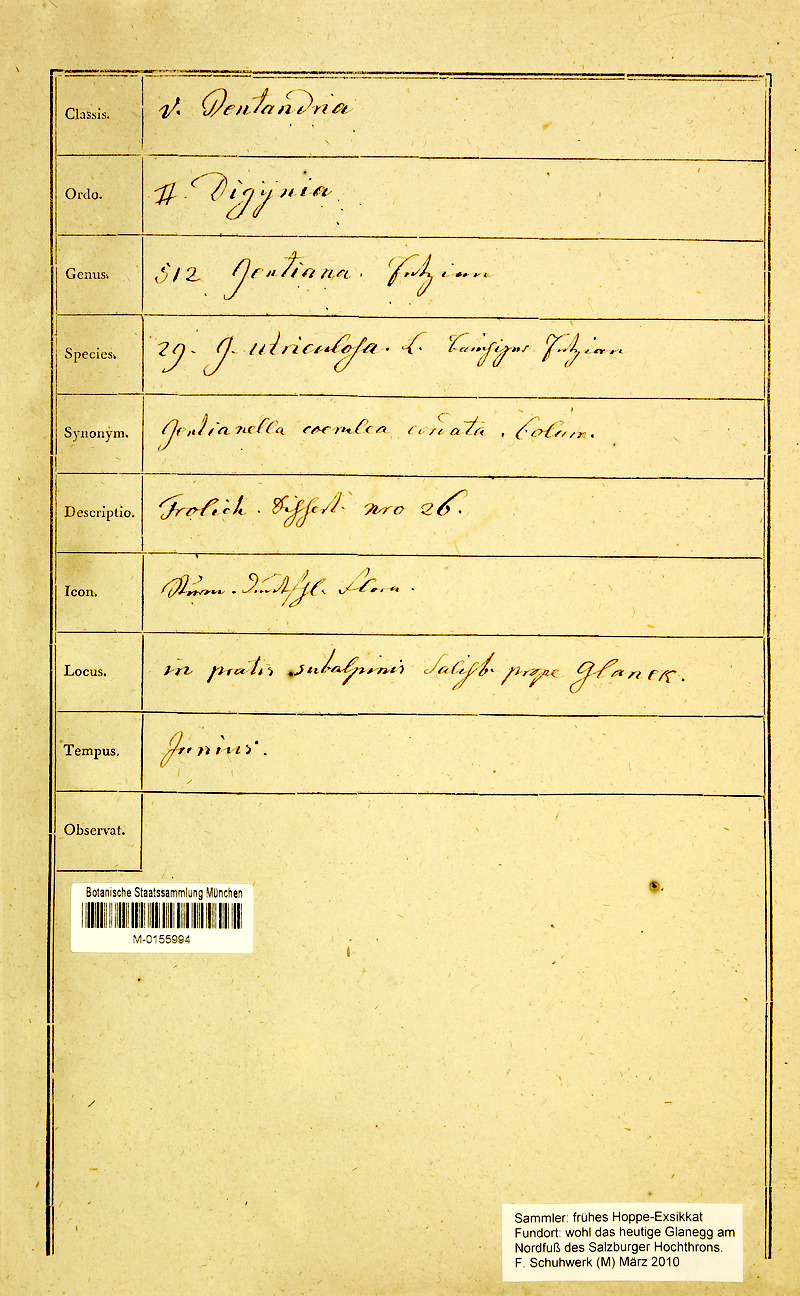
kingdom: Plantae
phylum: Tracheophyta
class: Magnoliopsida
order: Gentianales
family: Gentianaceae
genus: Gentiana
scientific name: Gentiana utriculosa
